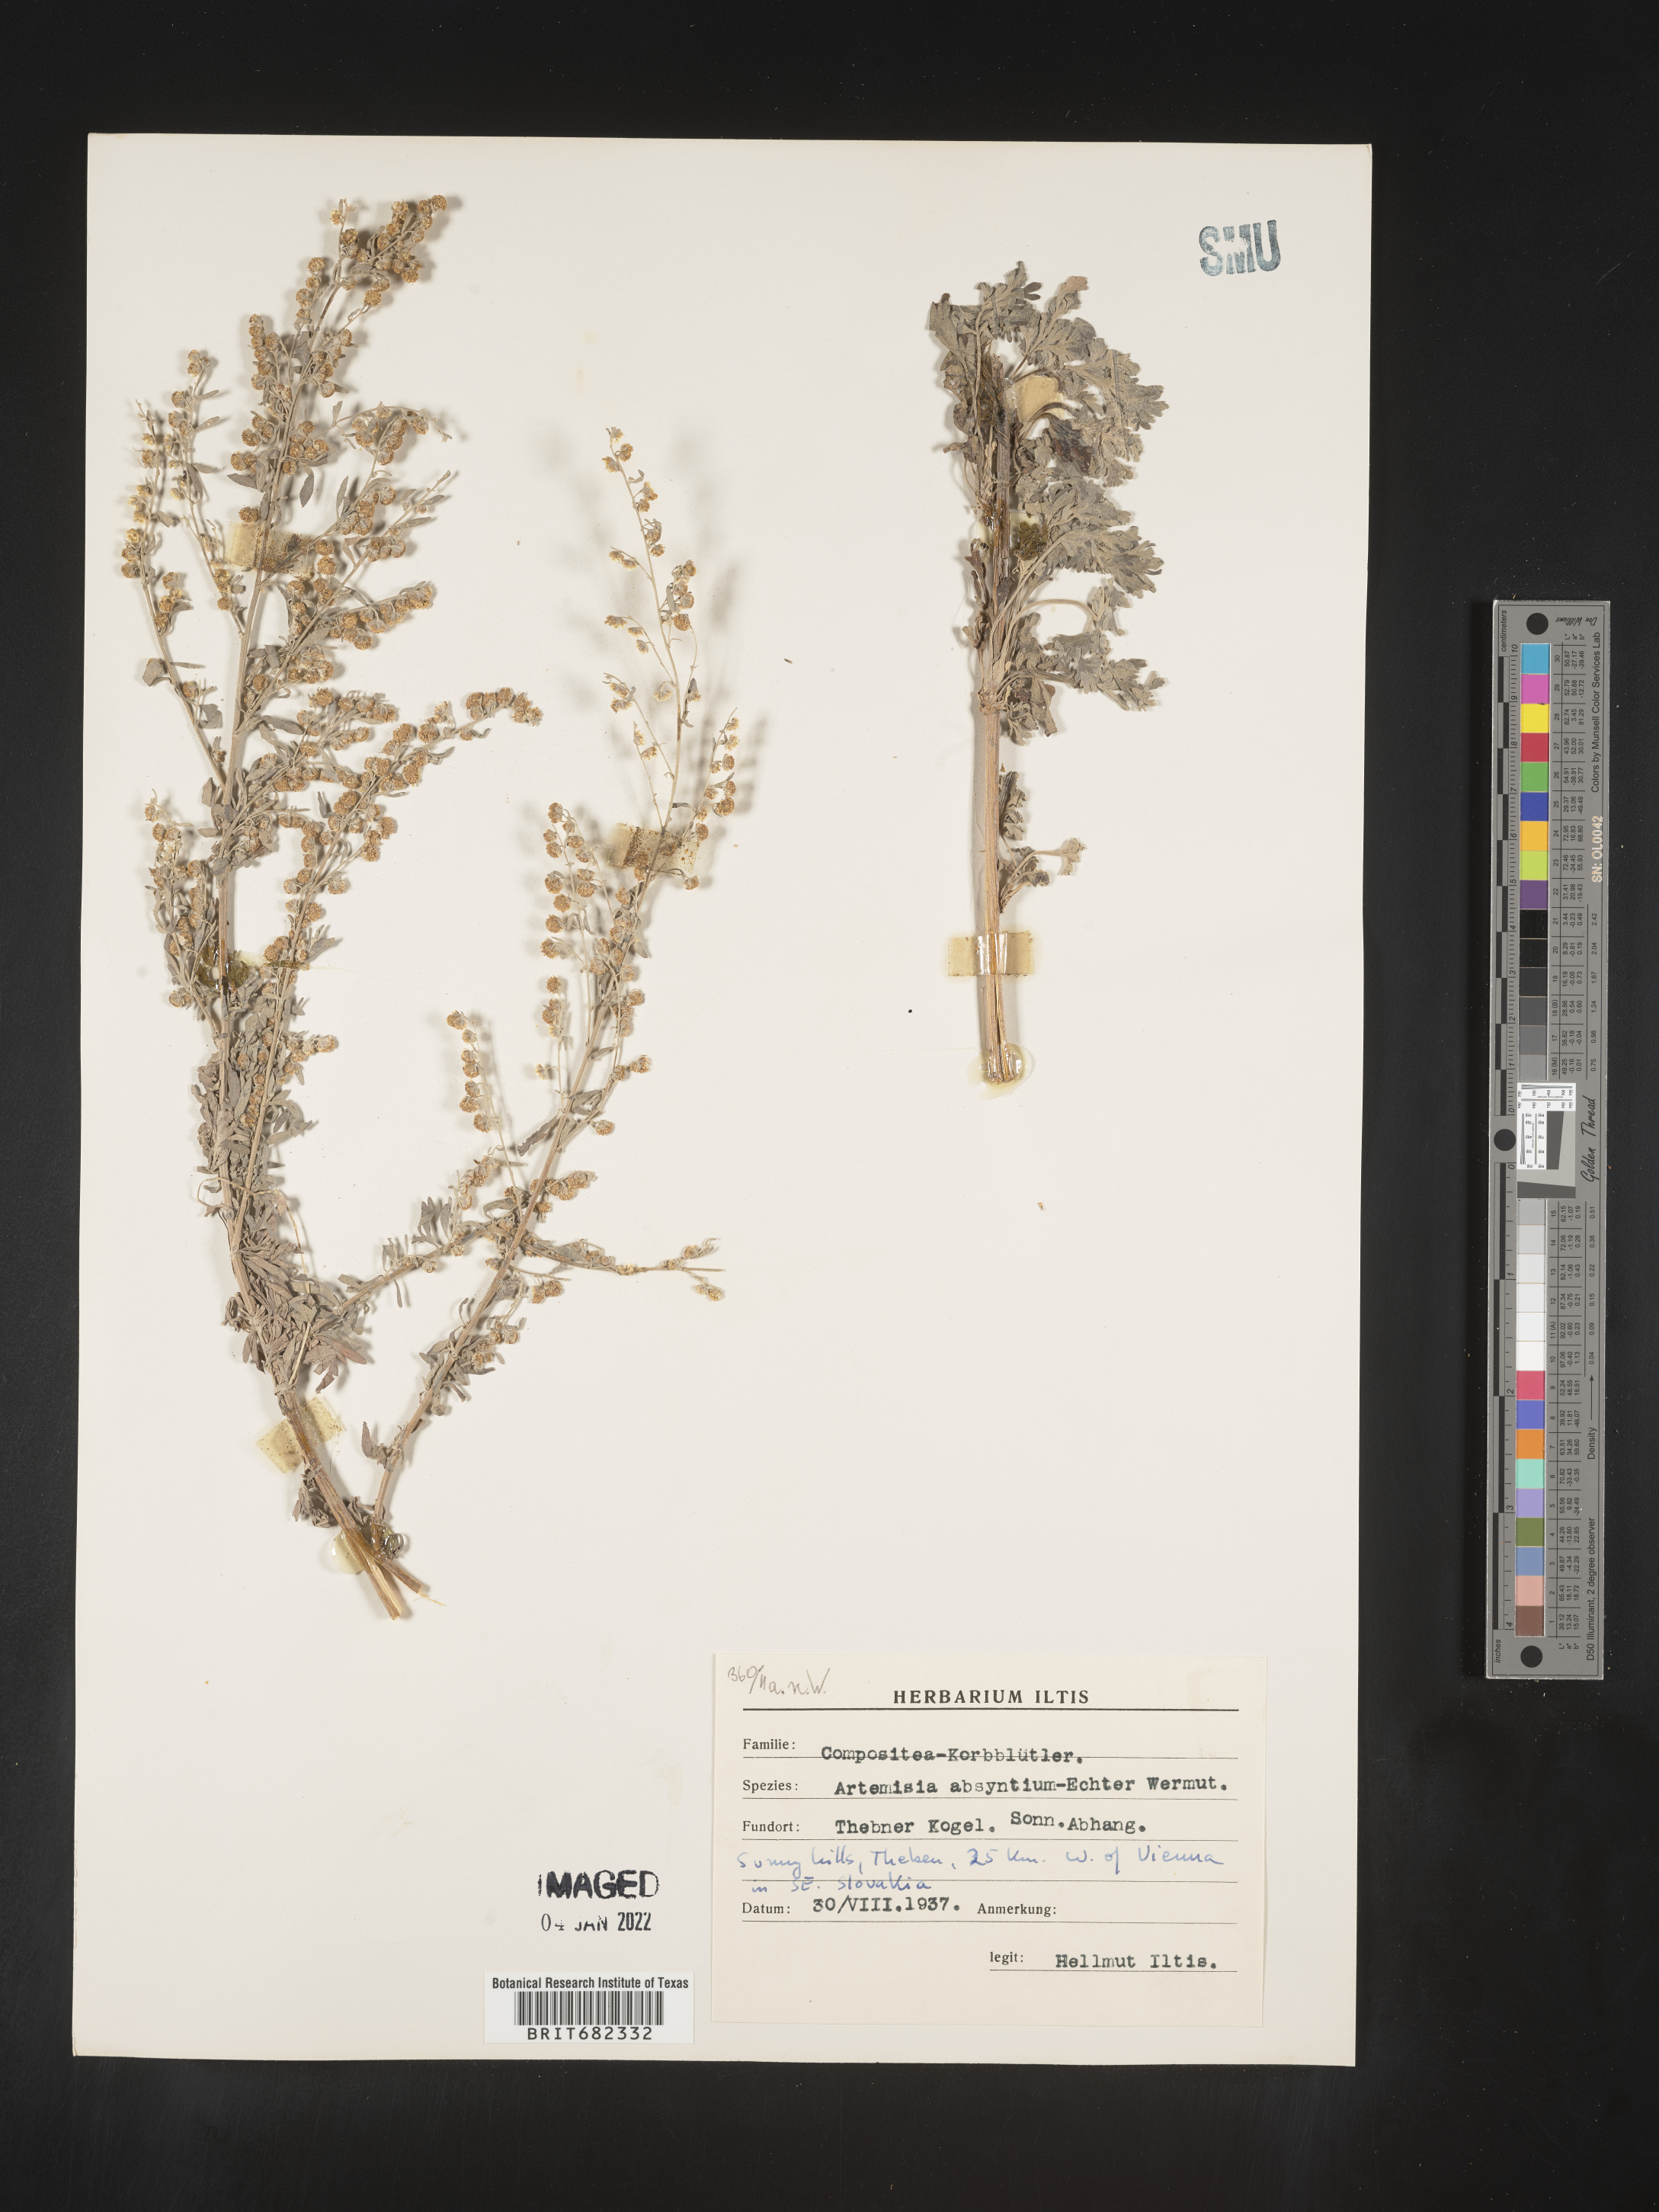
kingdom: Plantae
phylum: Tracheophyta
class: Magnoliopsida
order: Asterales
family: Asteraceae
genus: Artemisia
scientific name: Artemisia
